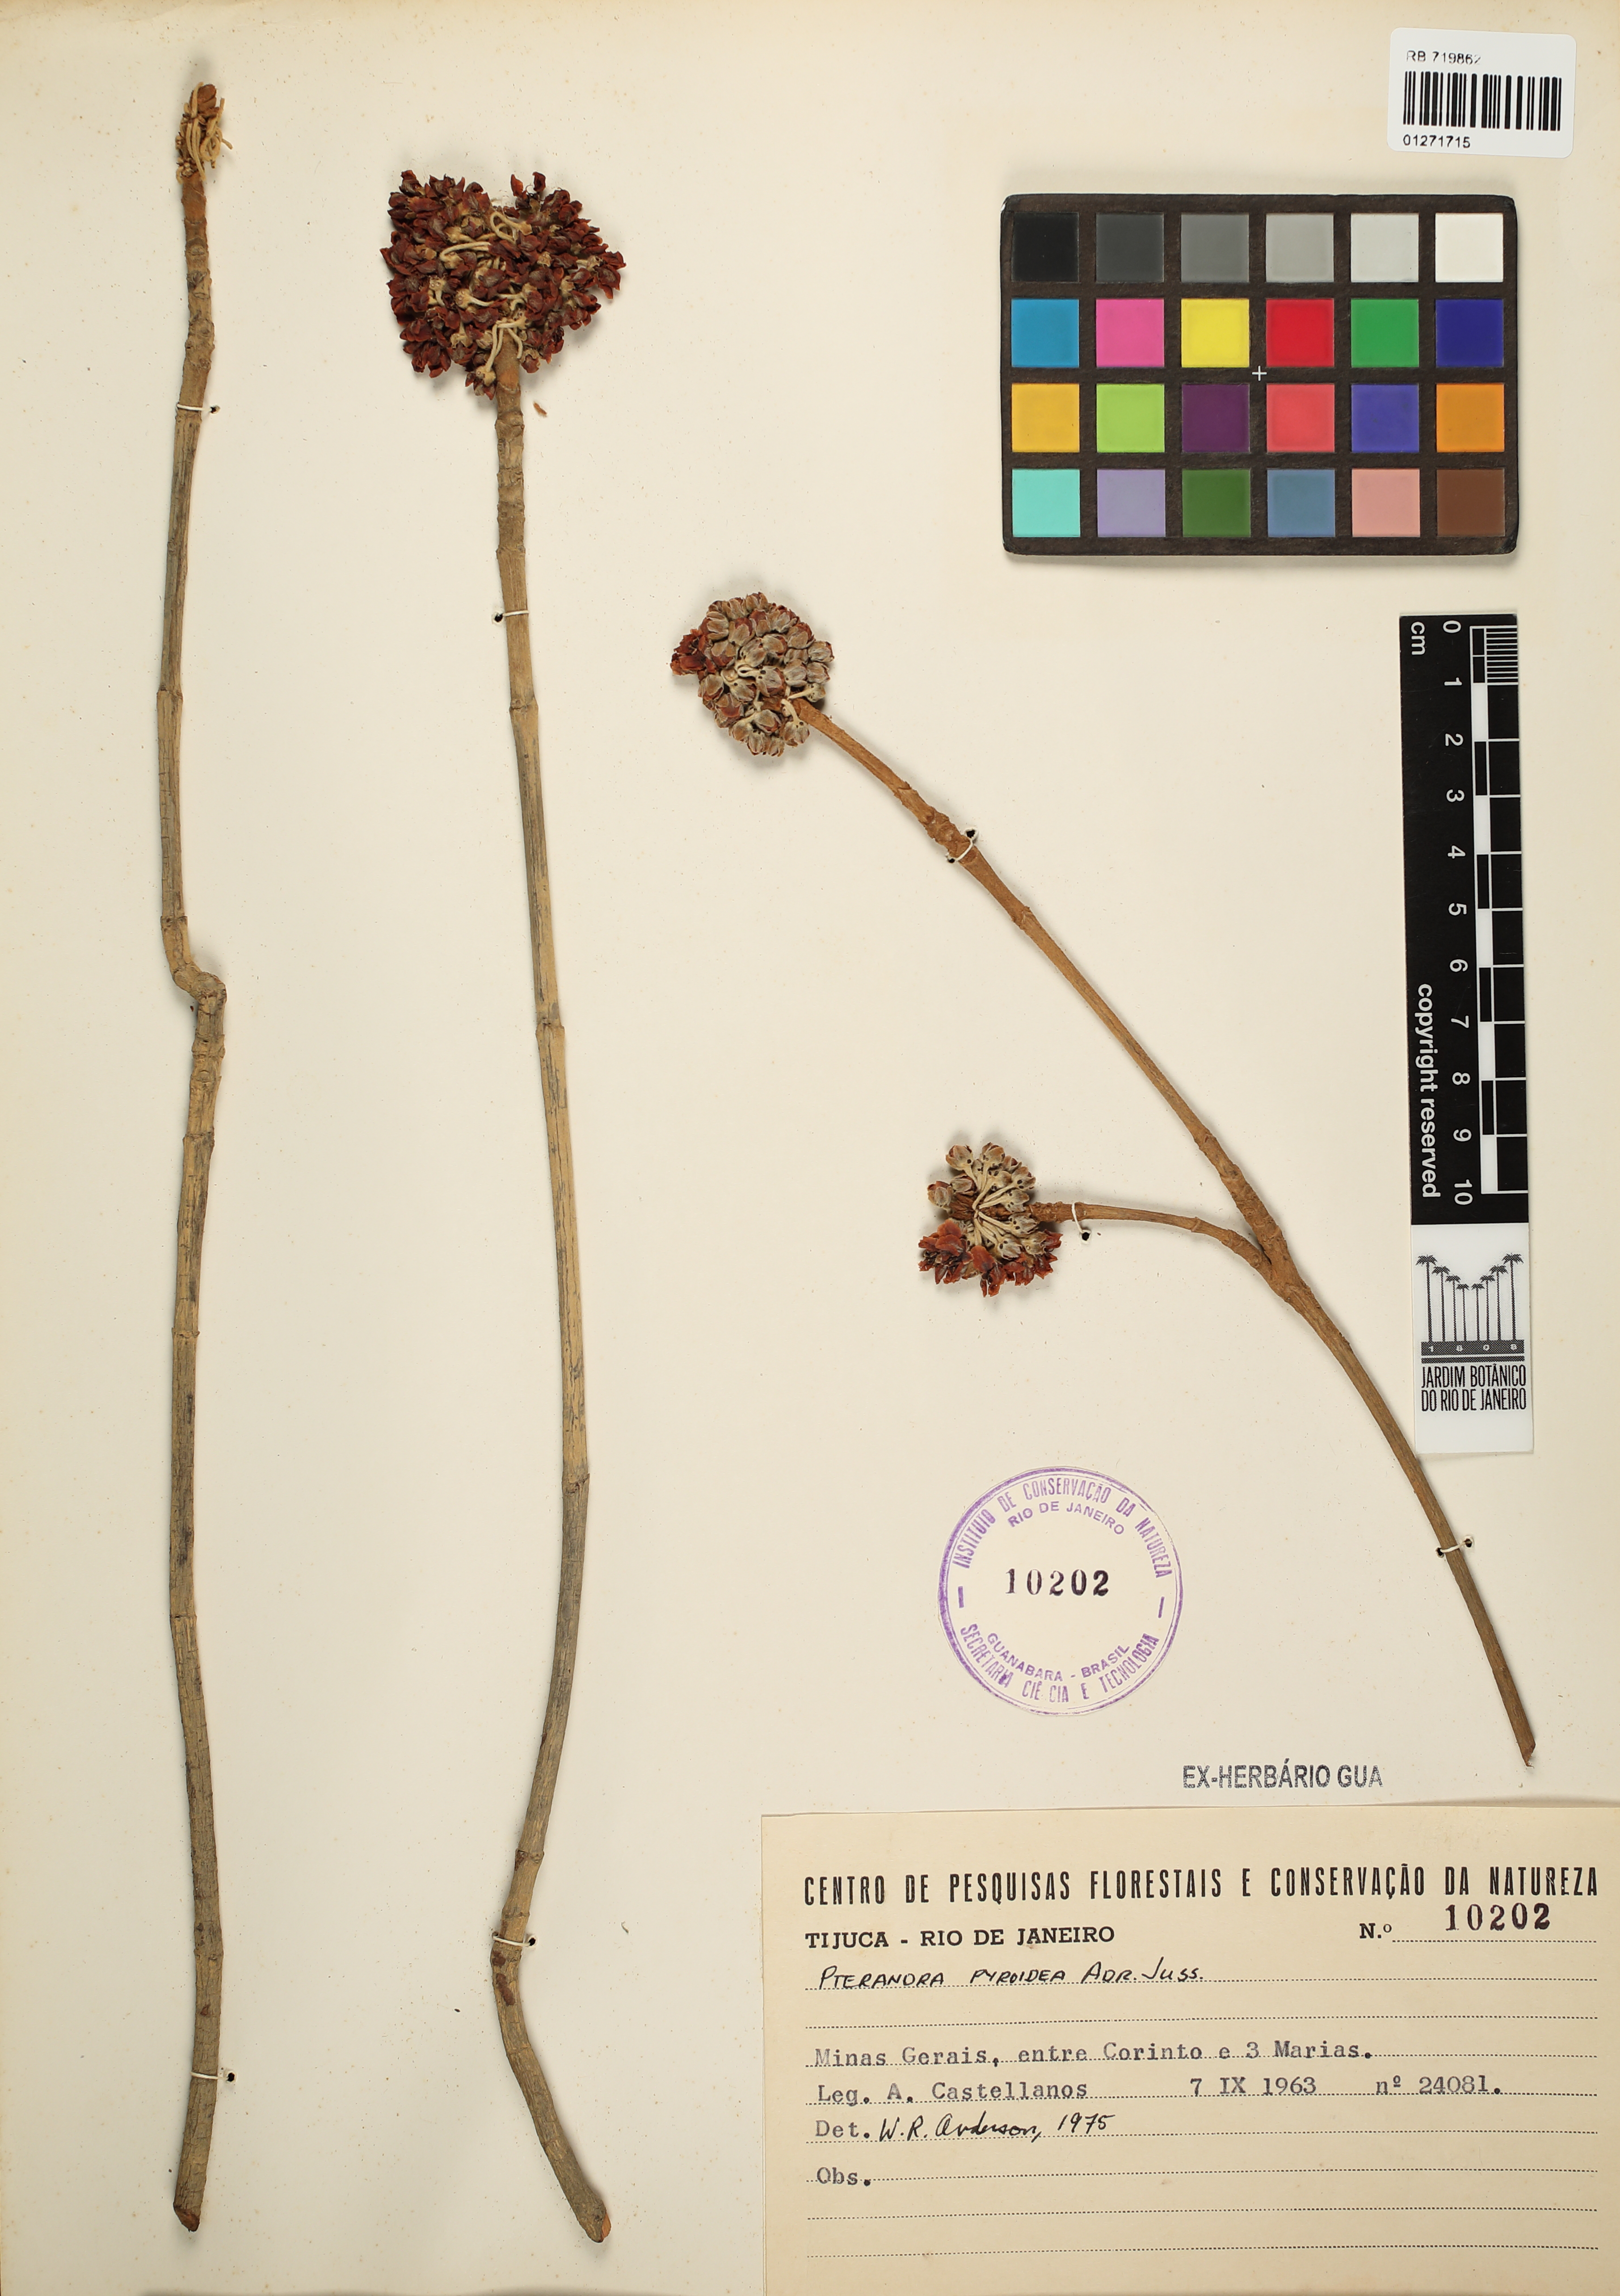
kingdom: Plantae
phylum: Tracheophyta
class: Magnoliopsida
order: Malpighiales
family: Malpighiaceae
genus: Pterandra
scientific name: Pterandra pyroidea
